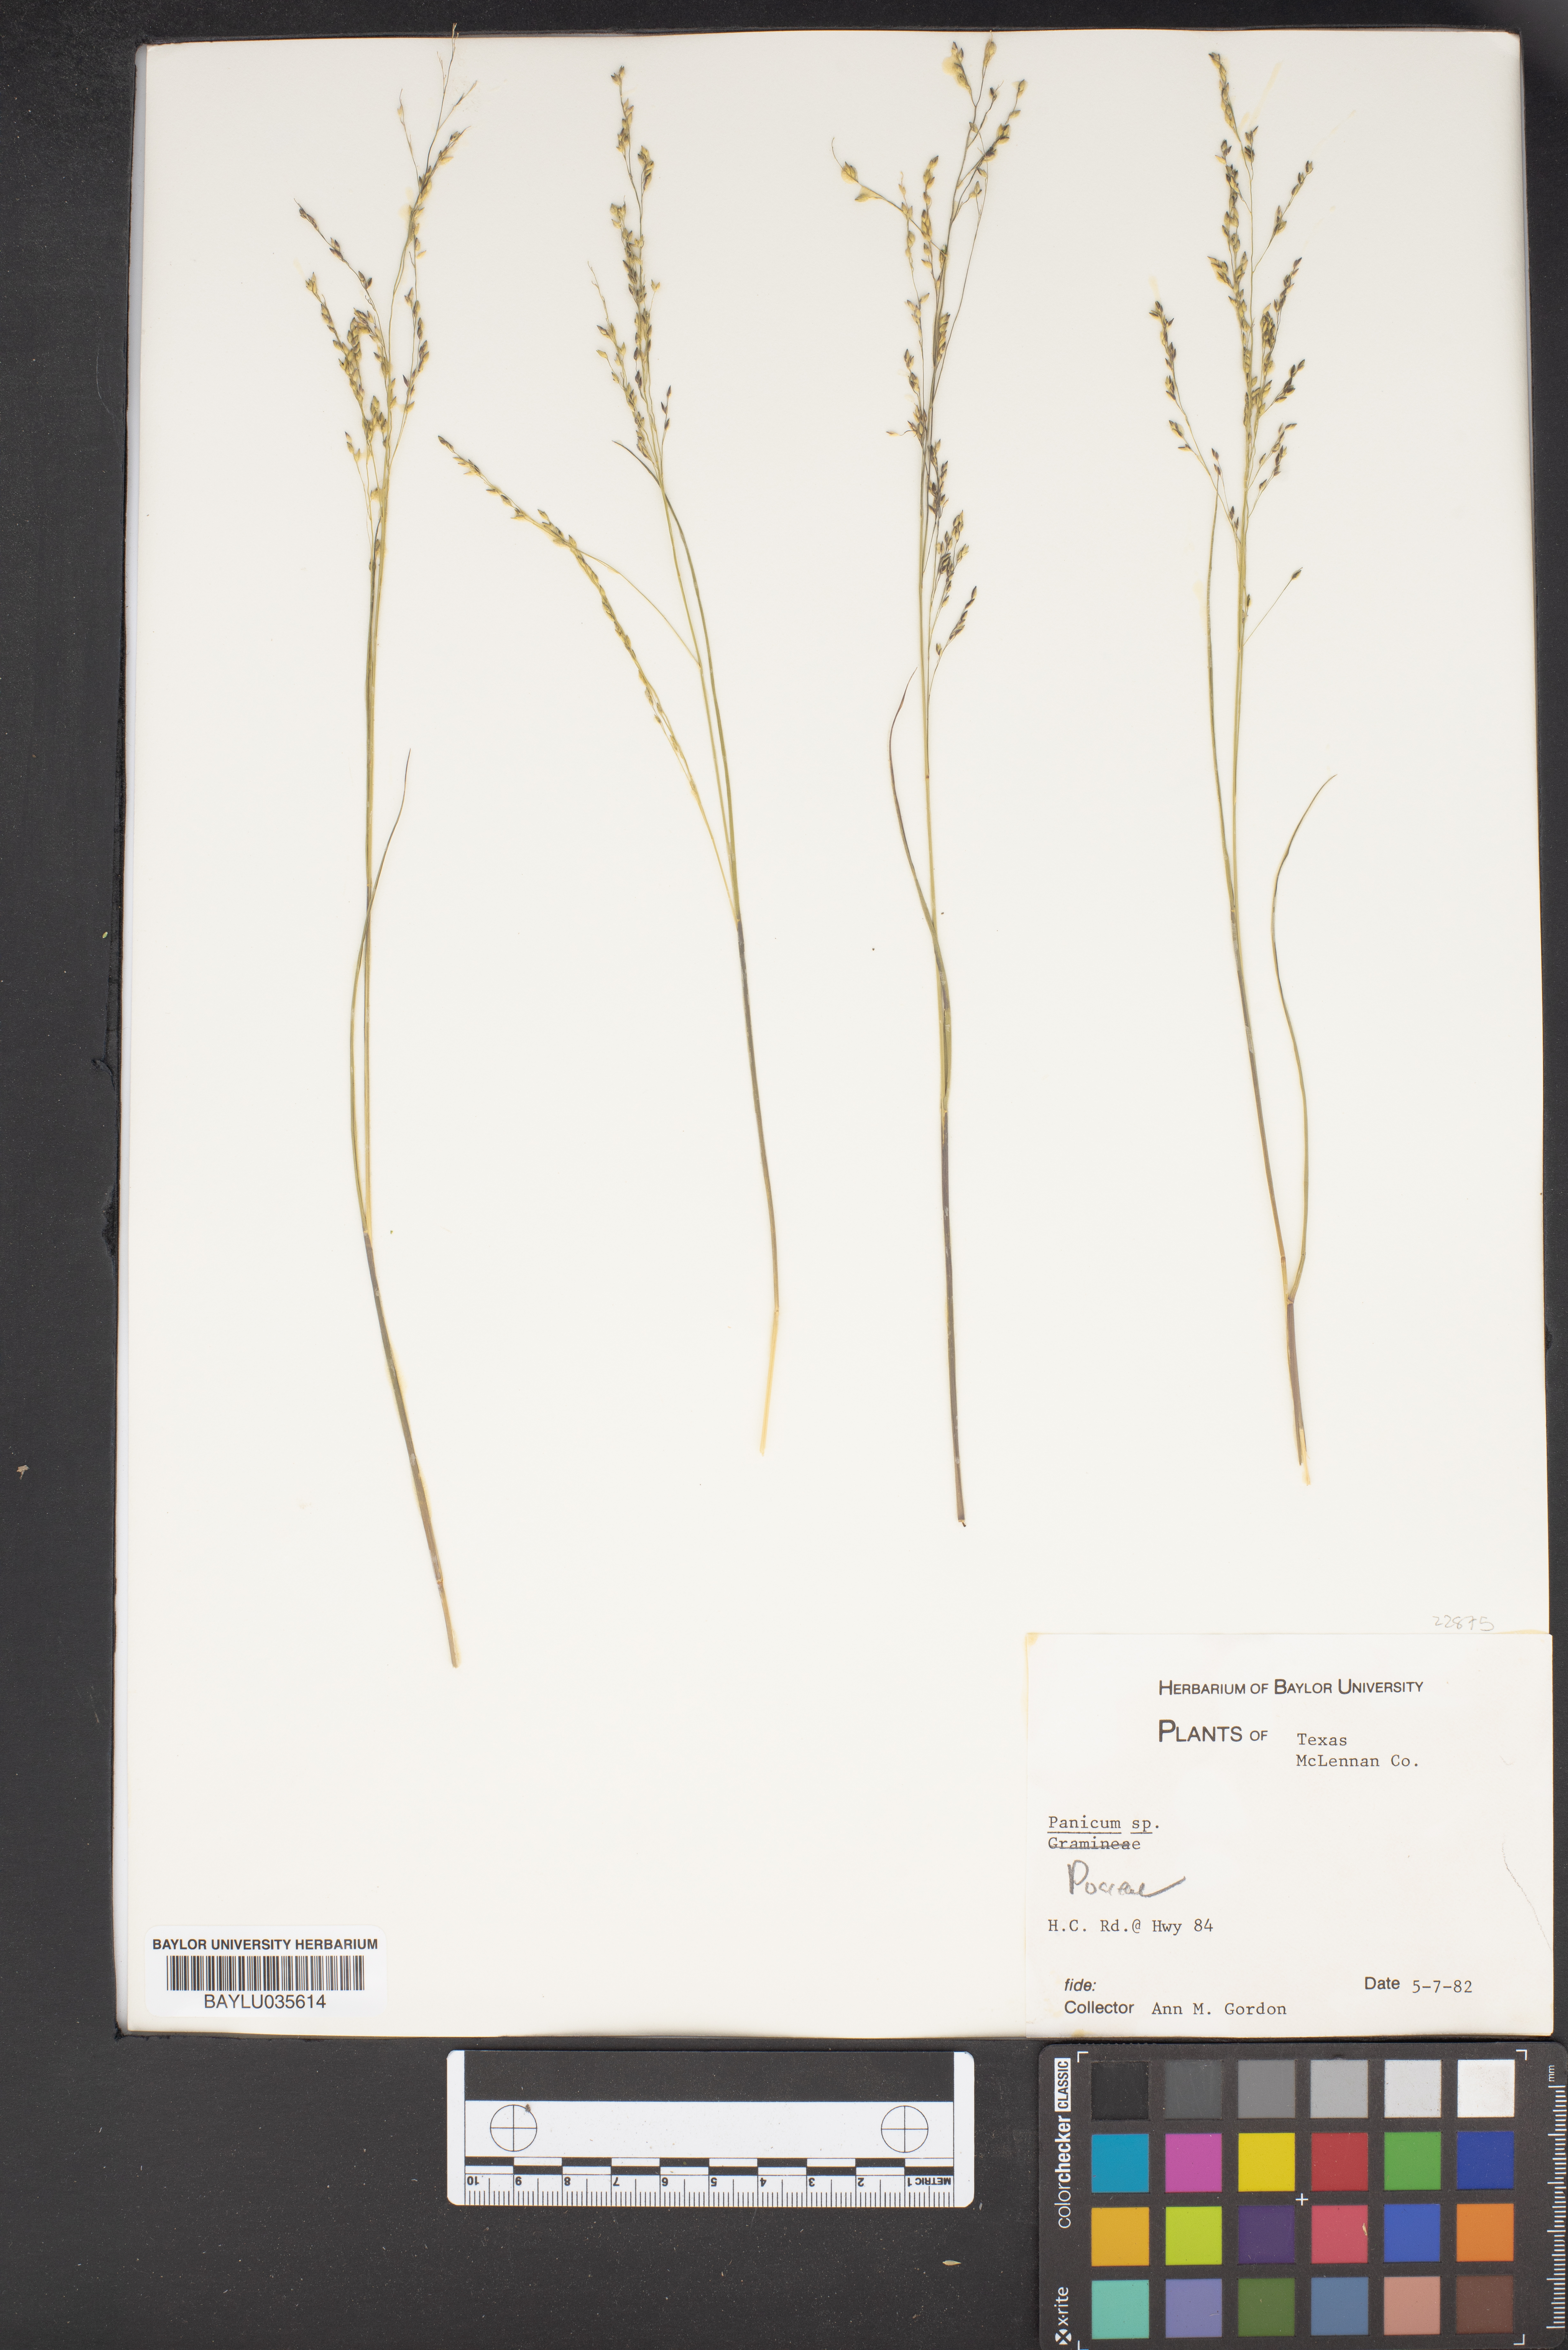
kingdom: Plantae
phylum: Tracheophyta
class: Liliopsida
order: Poales
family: Poaceae
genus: Panicum
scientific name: Panicum
